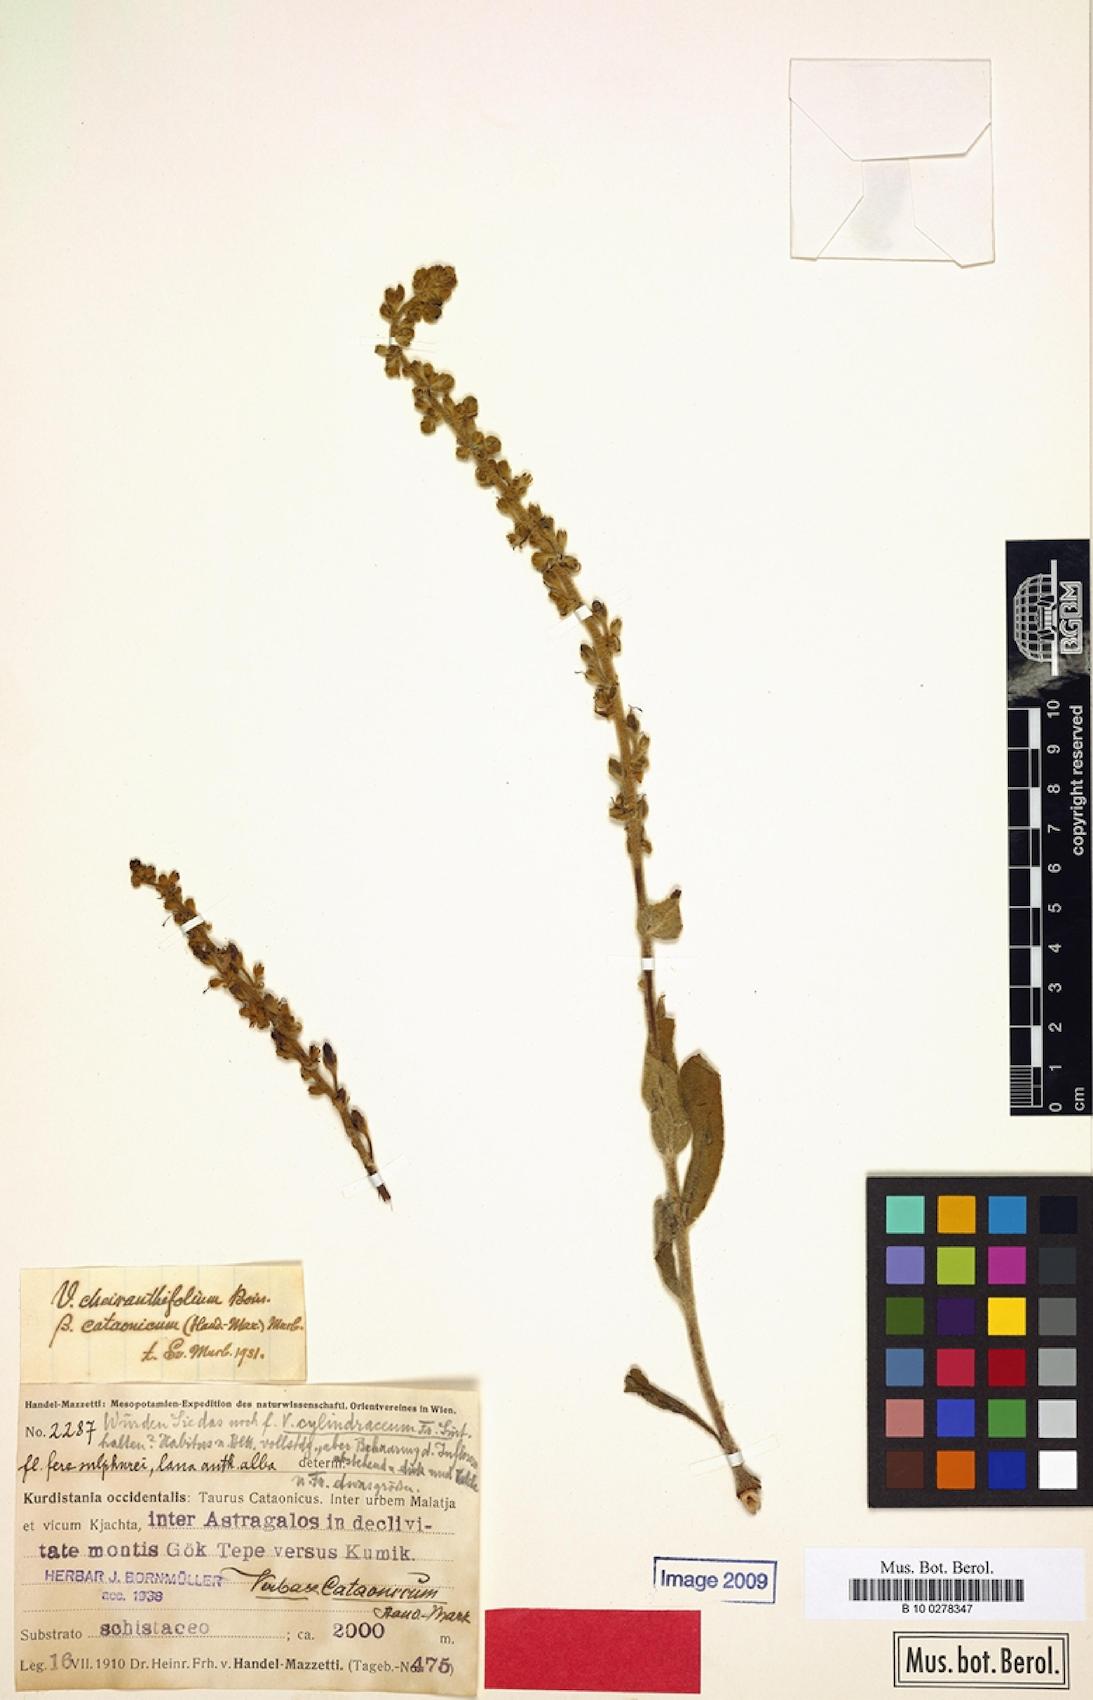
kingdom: Plantae
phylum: Tracheophyta
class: Magnoliopsida
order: Lamiales
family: Scrophulariaceae
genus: Verbascum
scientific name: Verbascum cheiranthifollum
